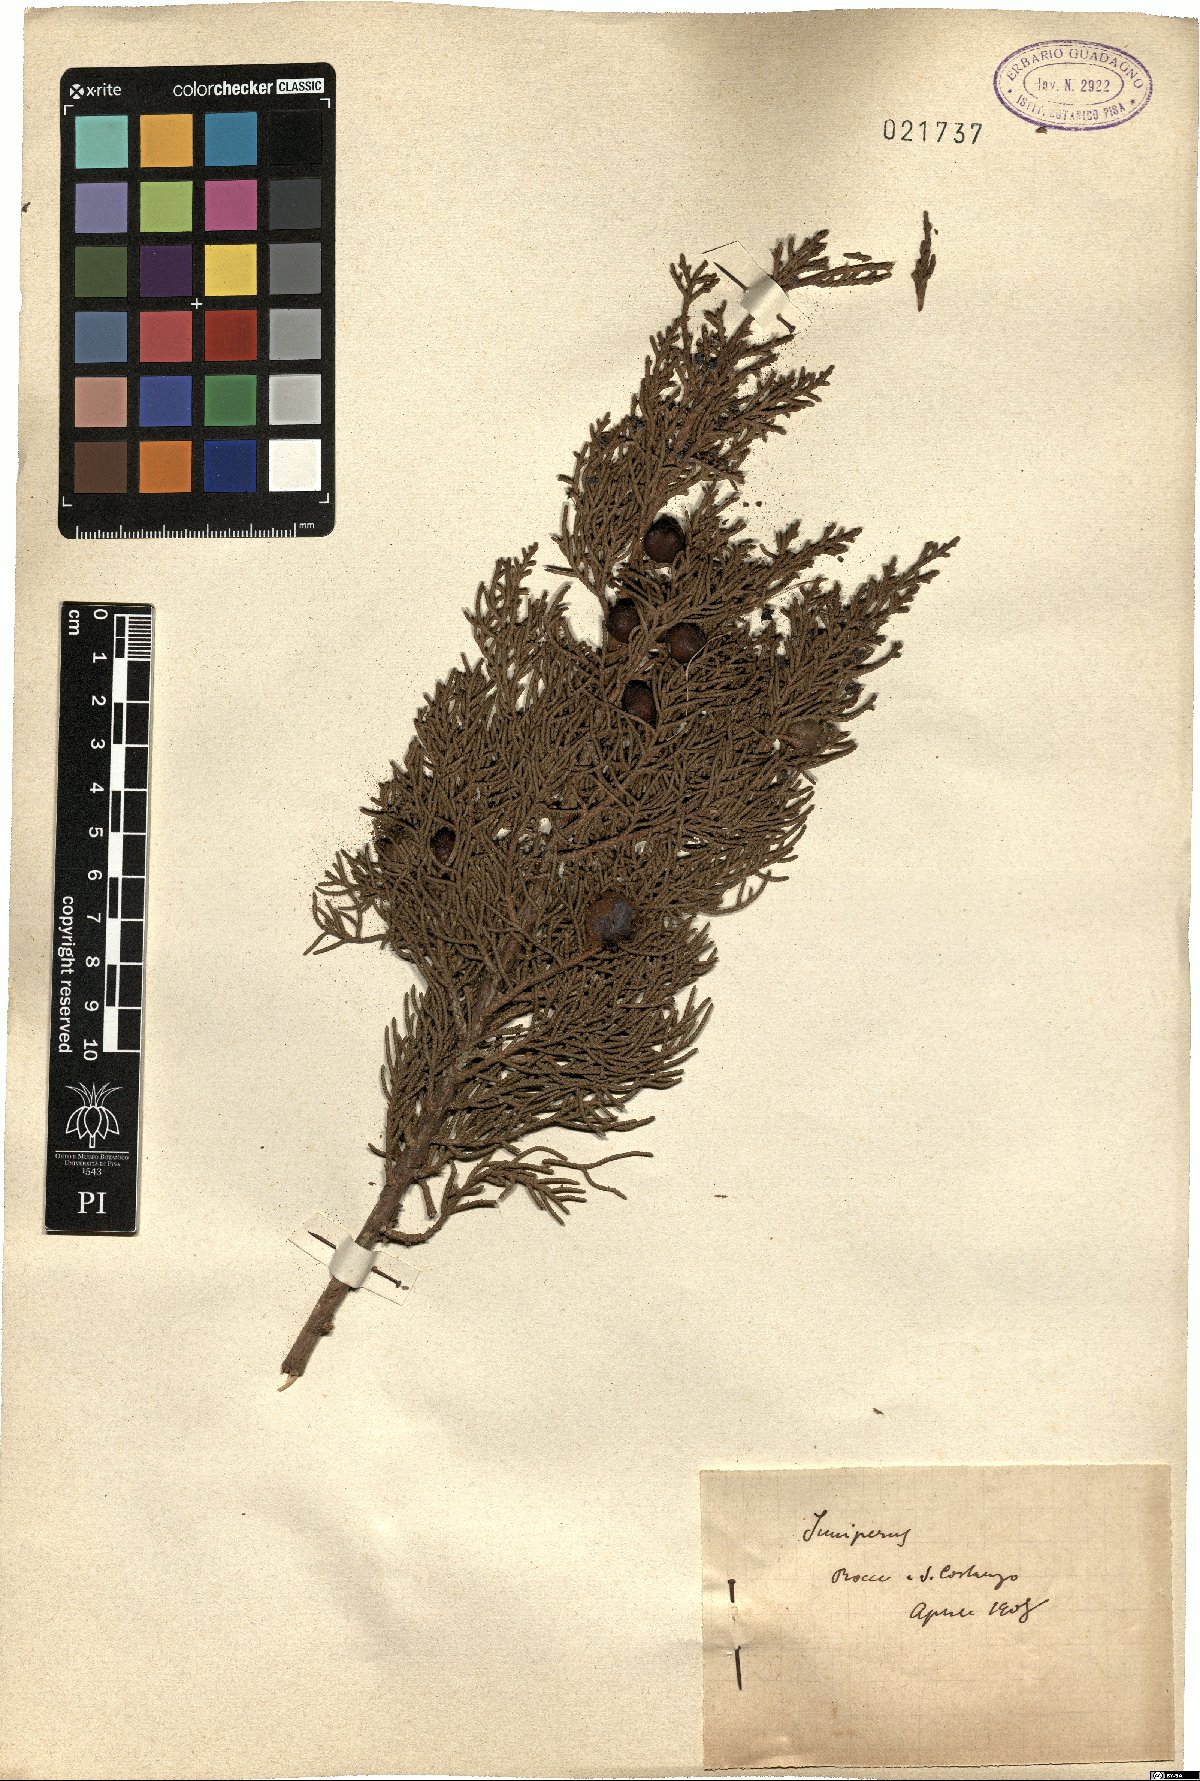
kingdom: Plantae
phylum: Tracheophyta
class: Pinopsida
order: Pinales
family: Cupressaceae
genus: Juniperus
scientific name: Juniperus phoenicea
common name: Phoenician juniper
